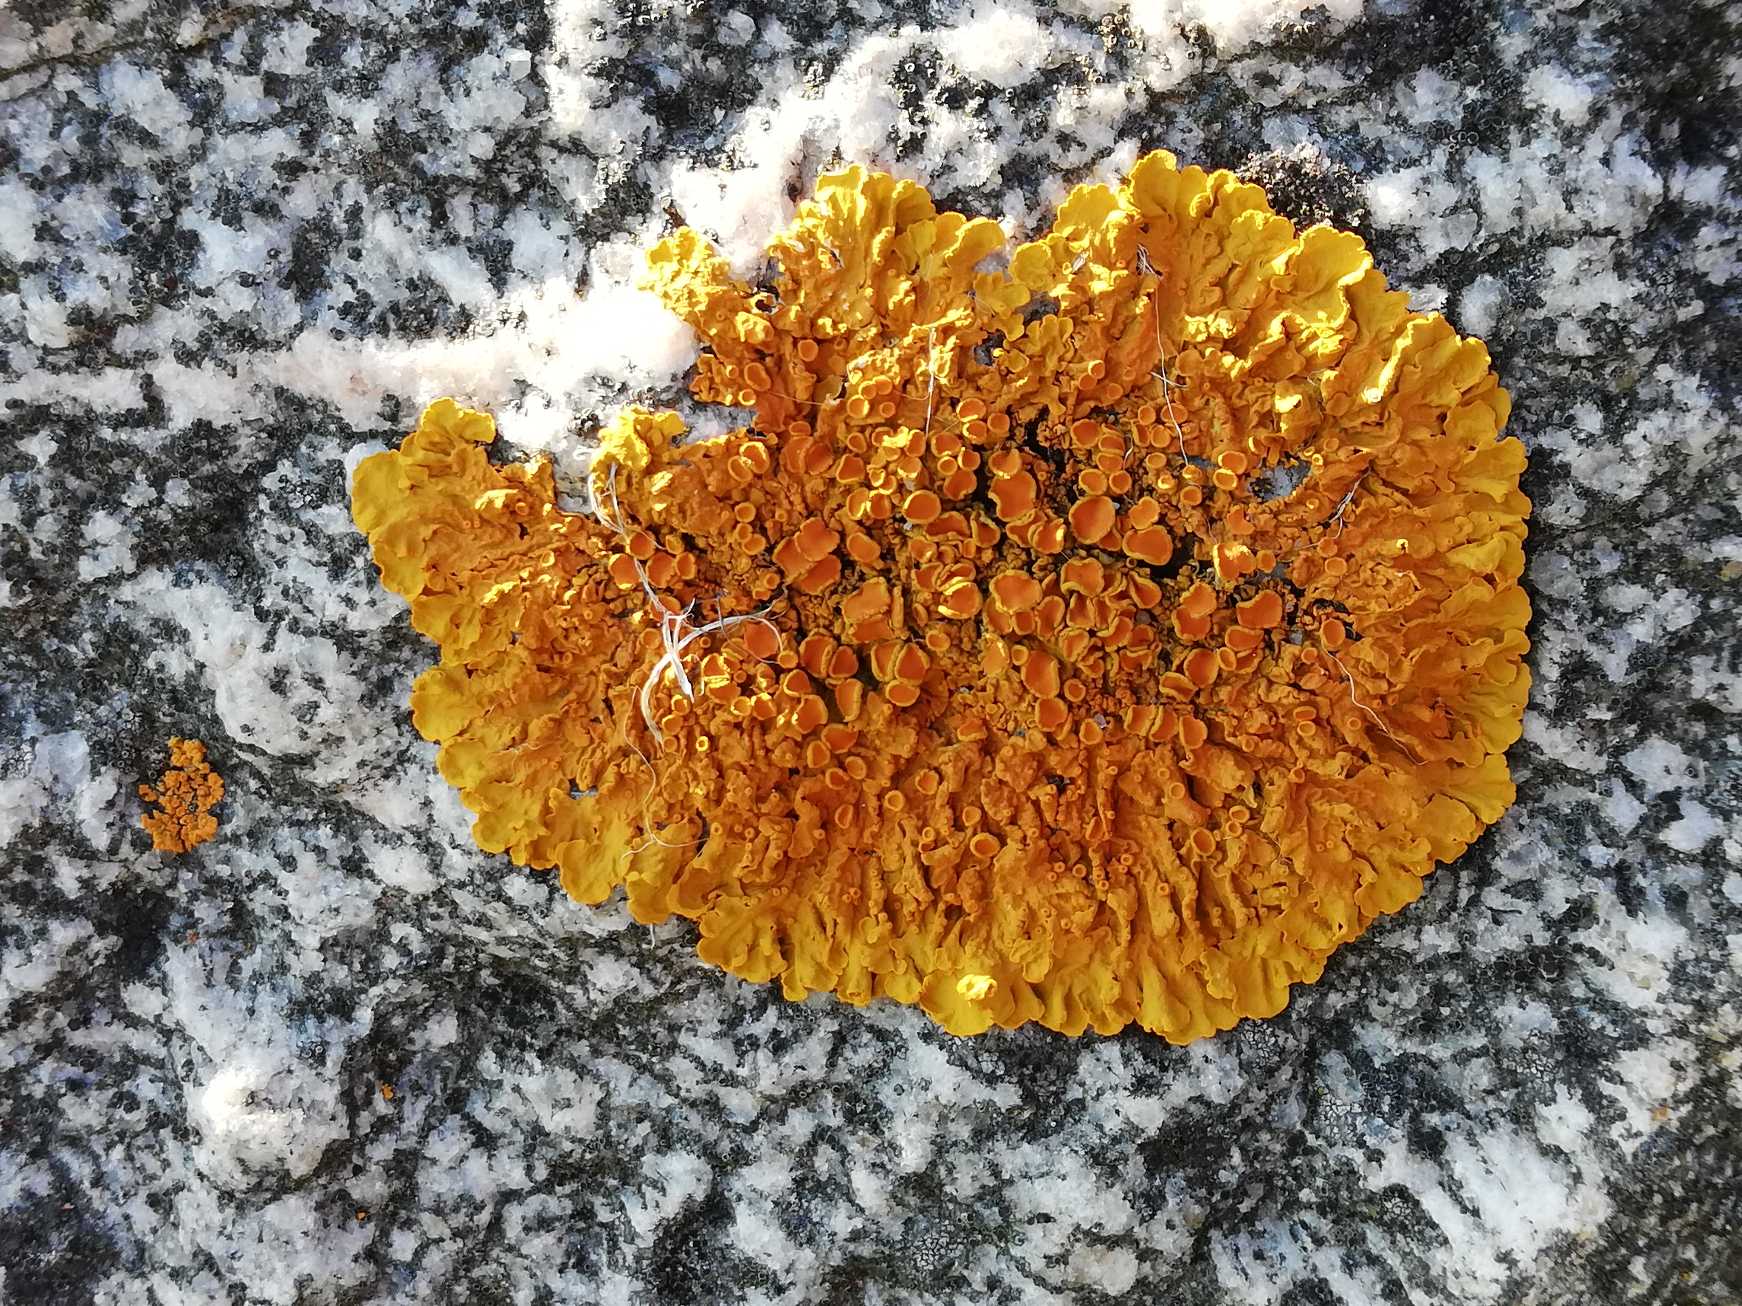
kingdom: Fungi
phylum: Ascomycota
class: Lecanoromycetes
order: Teloschistales
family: Teloschistaceae
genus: Xanthoria
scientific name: Xanthoria parietina
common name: Almindelig væggelav
